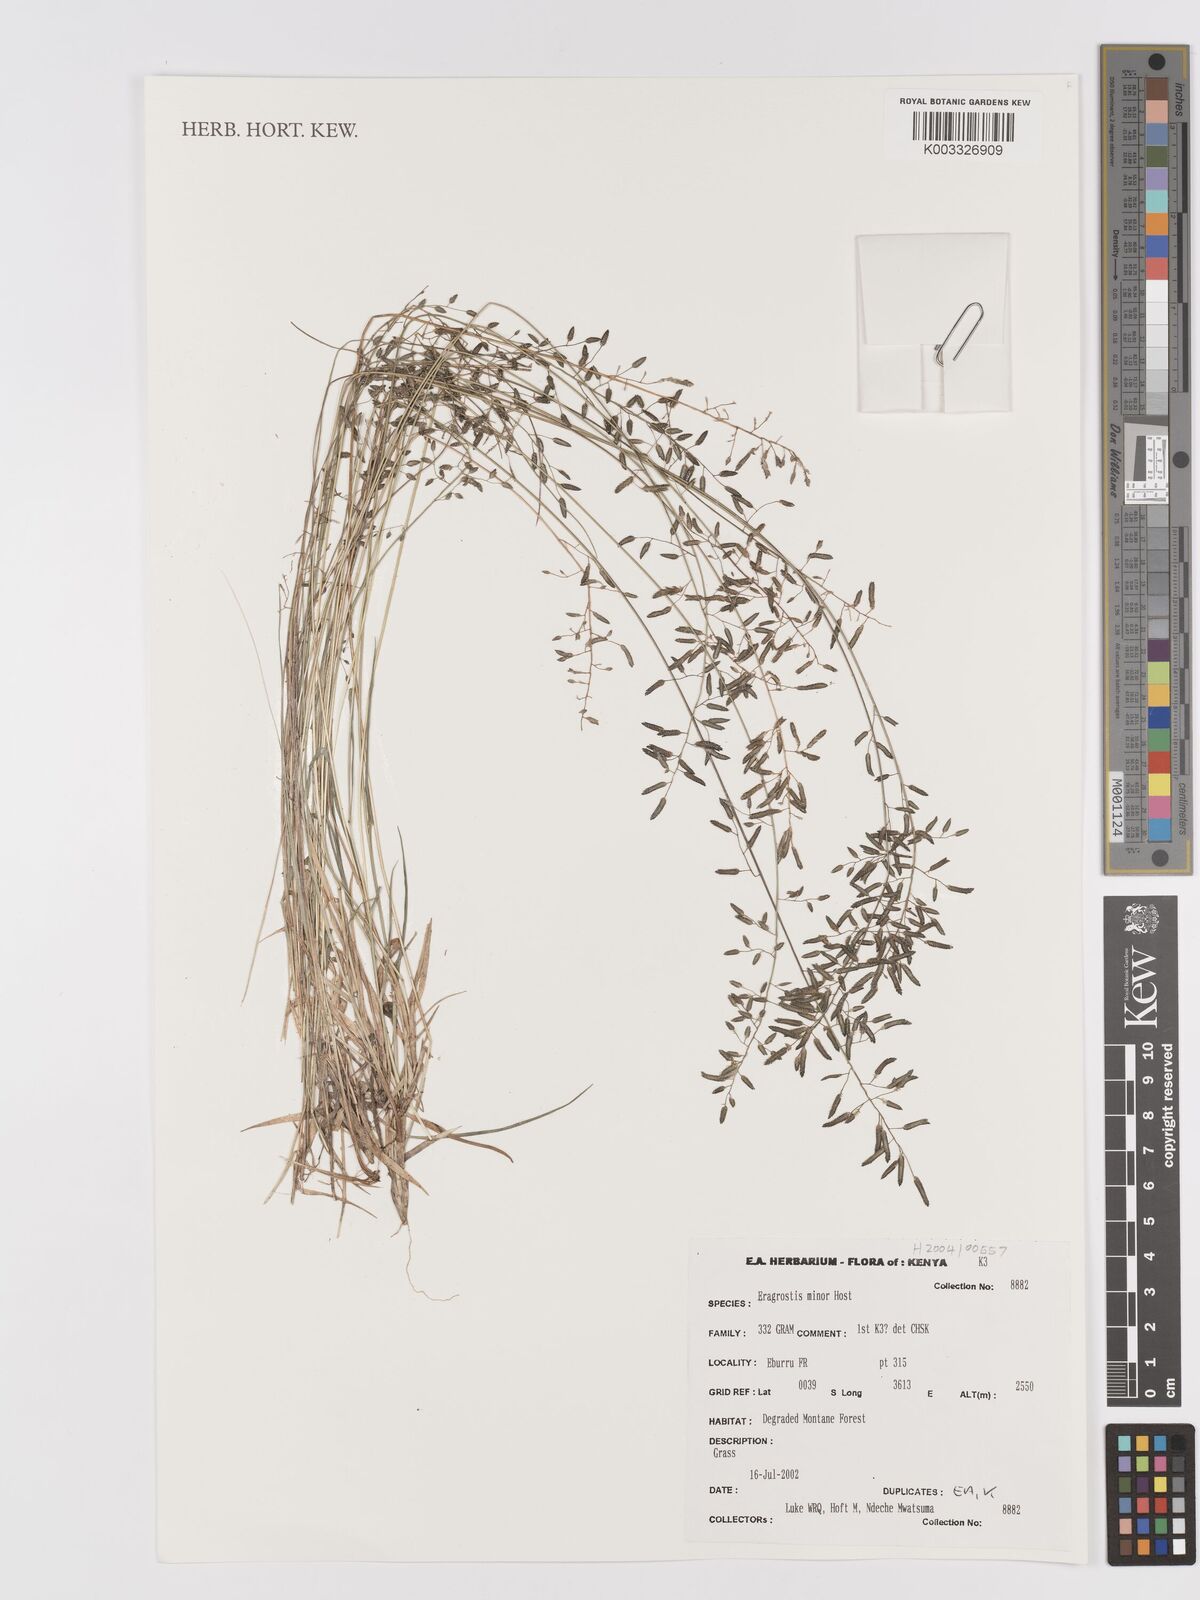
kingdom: Plantae
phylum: Tracheophyta
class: Liliopsida
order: Poales
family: Poaceae
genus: Eragrostis
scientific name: Eragrostis minor
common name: Small love-grass
